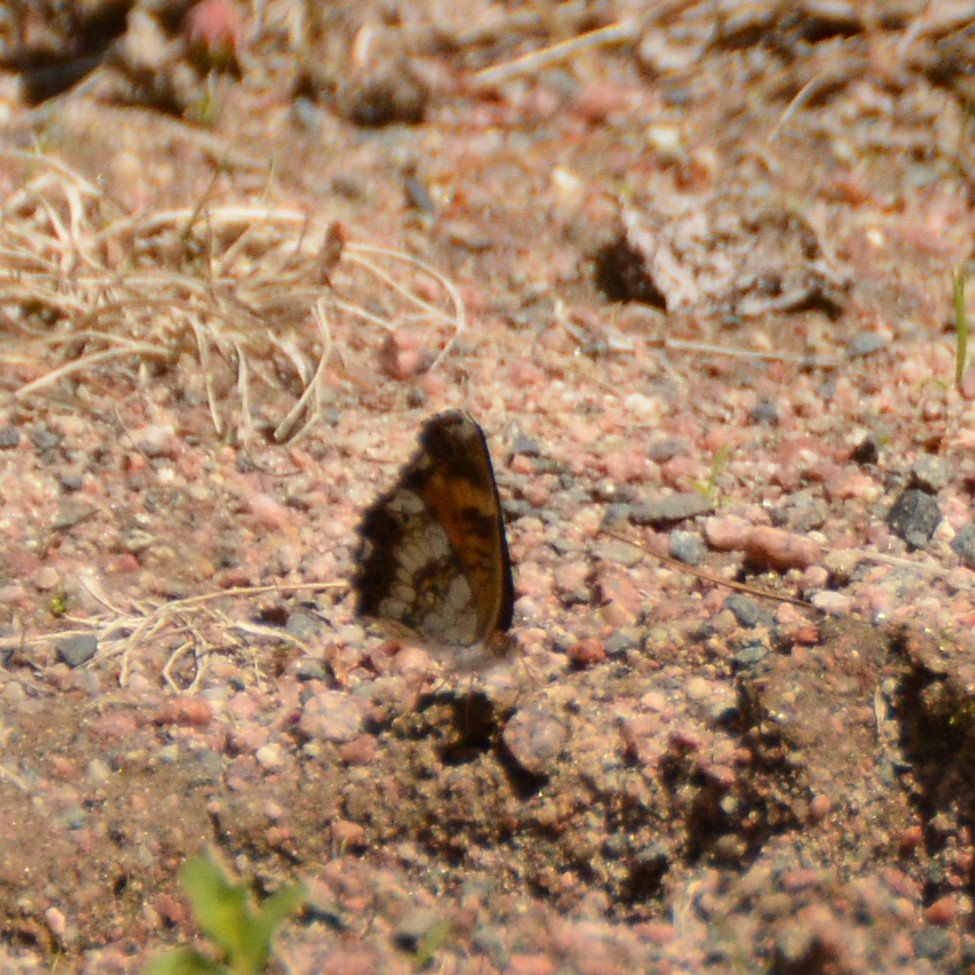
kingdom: Animalia
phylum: Arthropoda
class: Insecta
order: Lepidoptera
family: Nymphalidae
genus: Chlosyne
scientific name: Chlosyne nycteis
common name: Silvery Checkerspot
